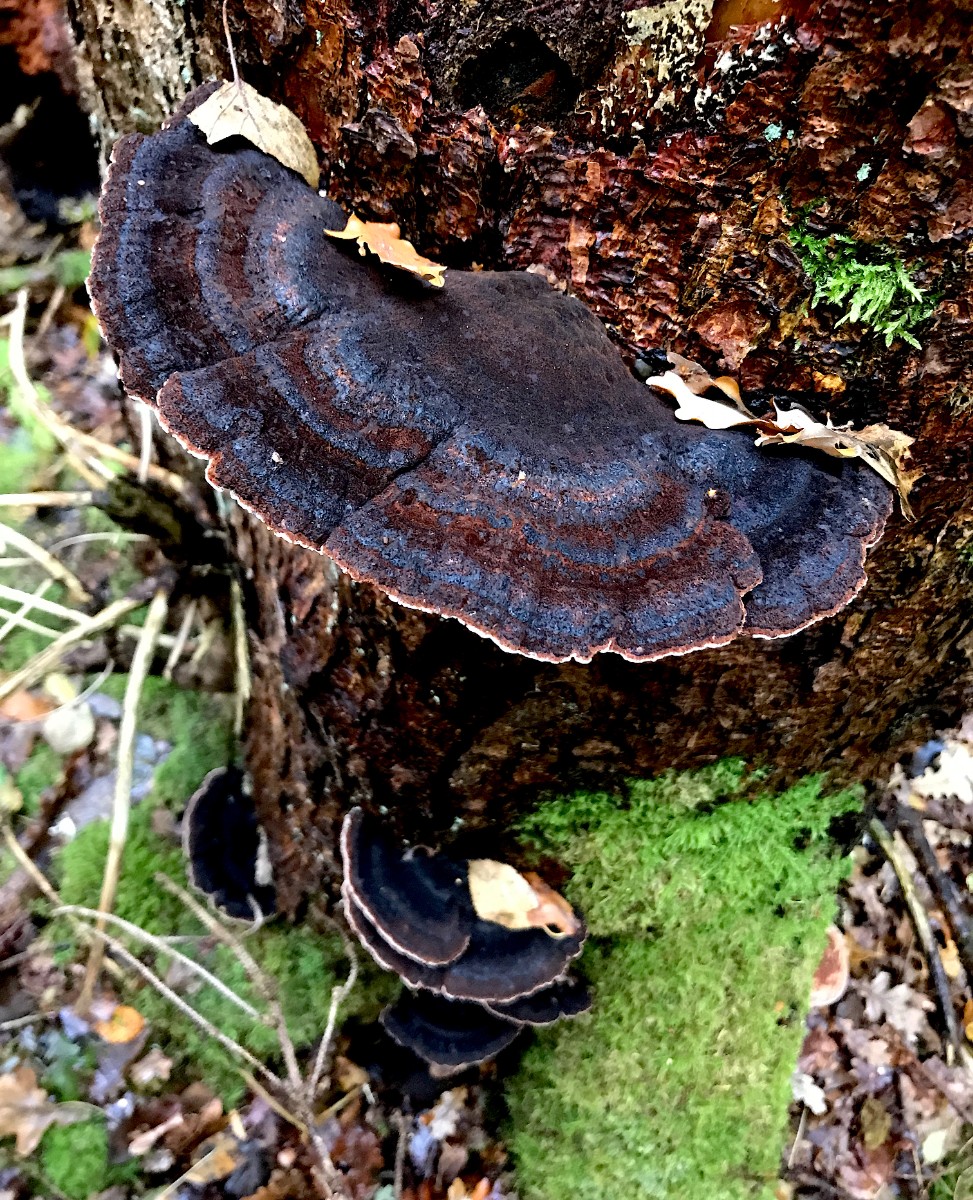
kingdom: Fungi
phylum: Basidiomycota
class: Agaricomycetes
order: Polyporales
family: Ischnodermataceae
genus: Ischnoderma
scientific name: Ischnoderma benzoinum
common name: gran-tjæreporesvamp
